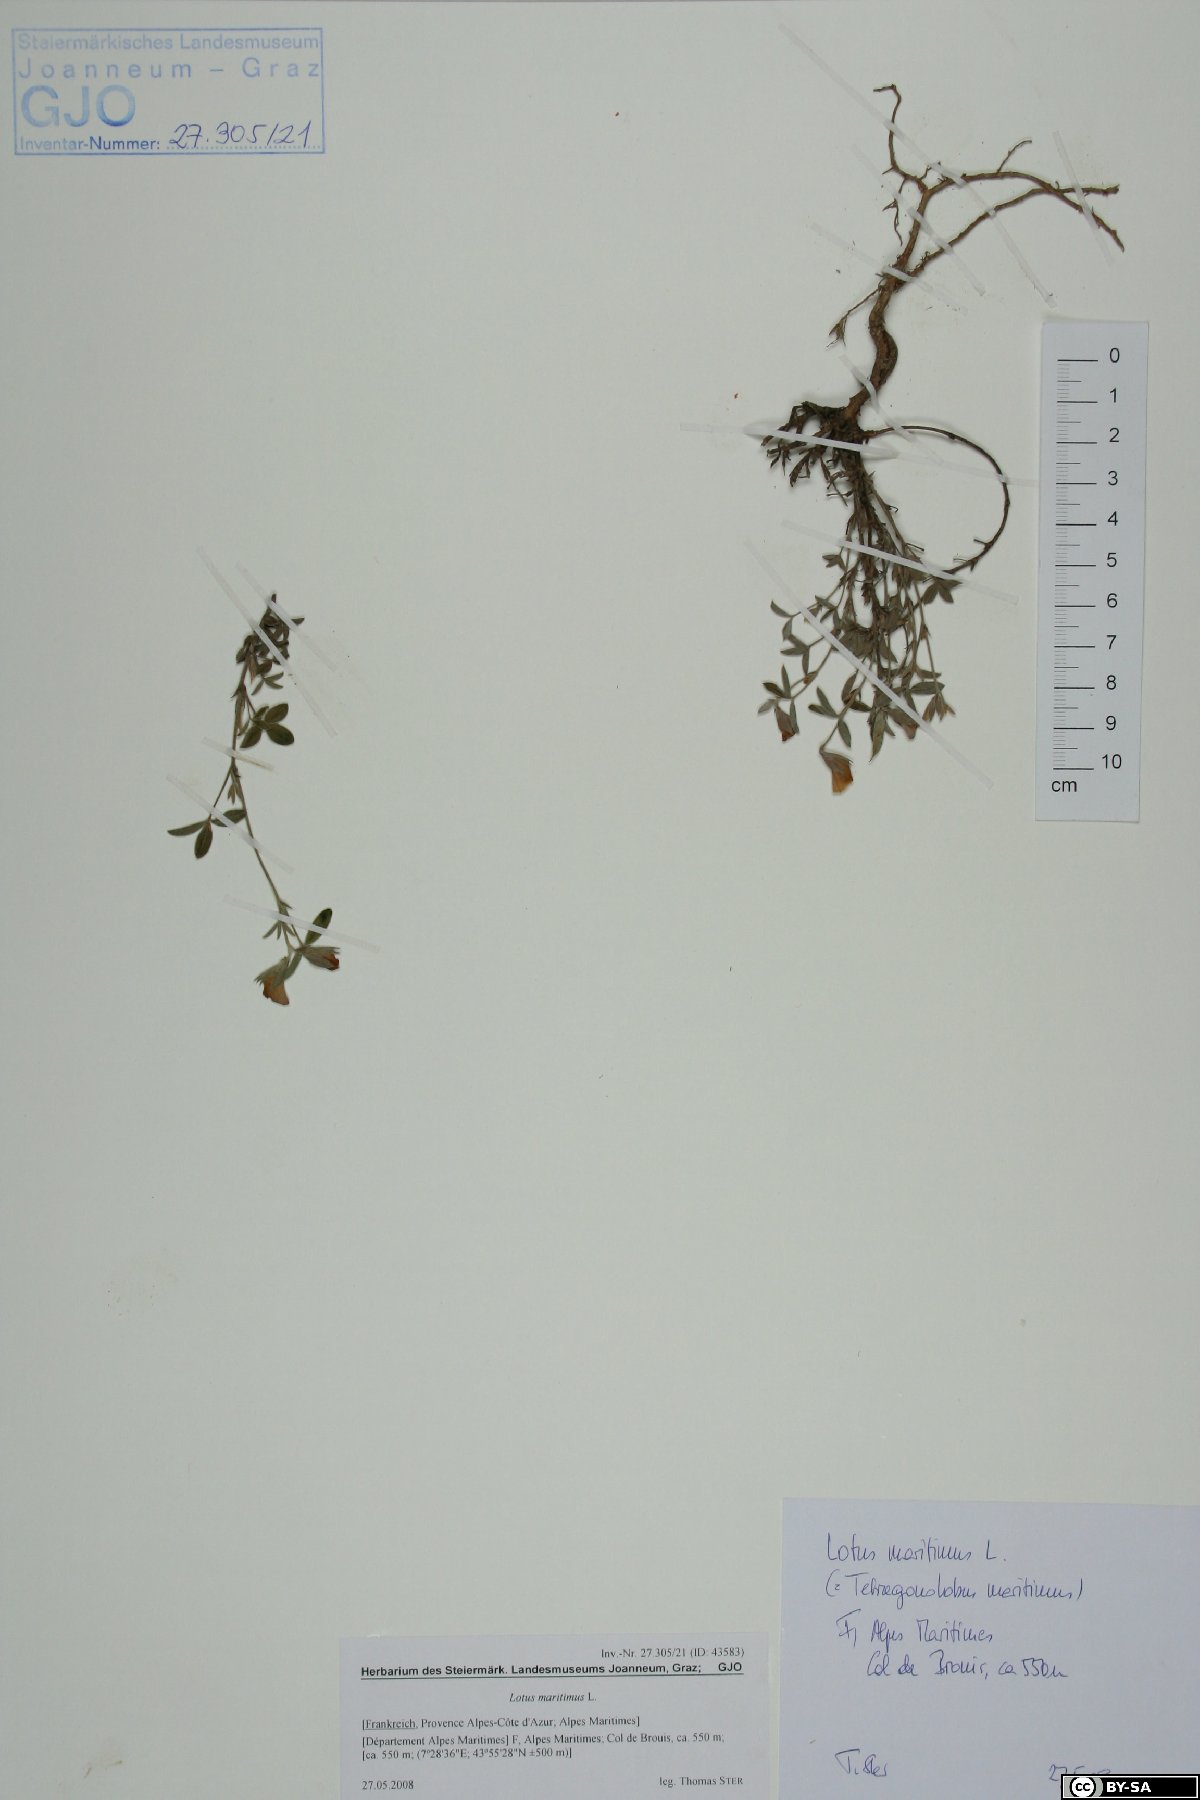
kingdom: Plantae
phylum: Tracheophyta
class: Magnoliopsida
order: Fabales
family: Fabaceae
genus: Lotus
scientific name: Lotus maritimus
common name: Dragon's-teeth
